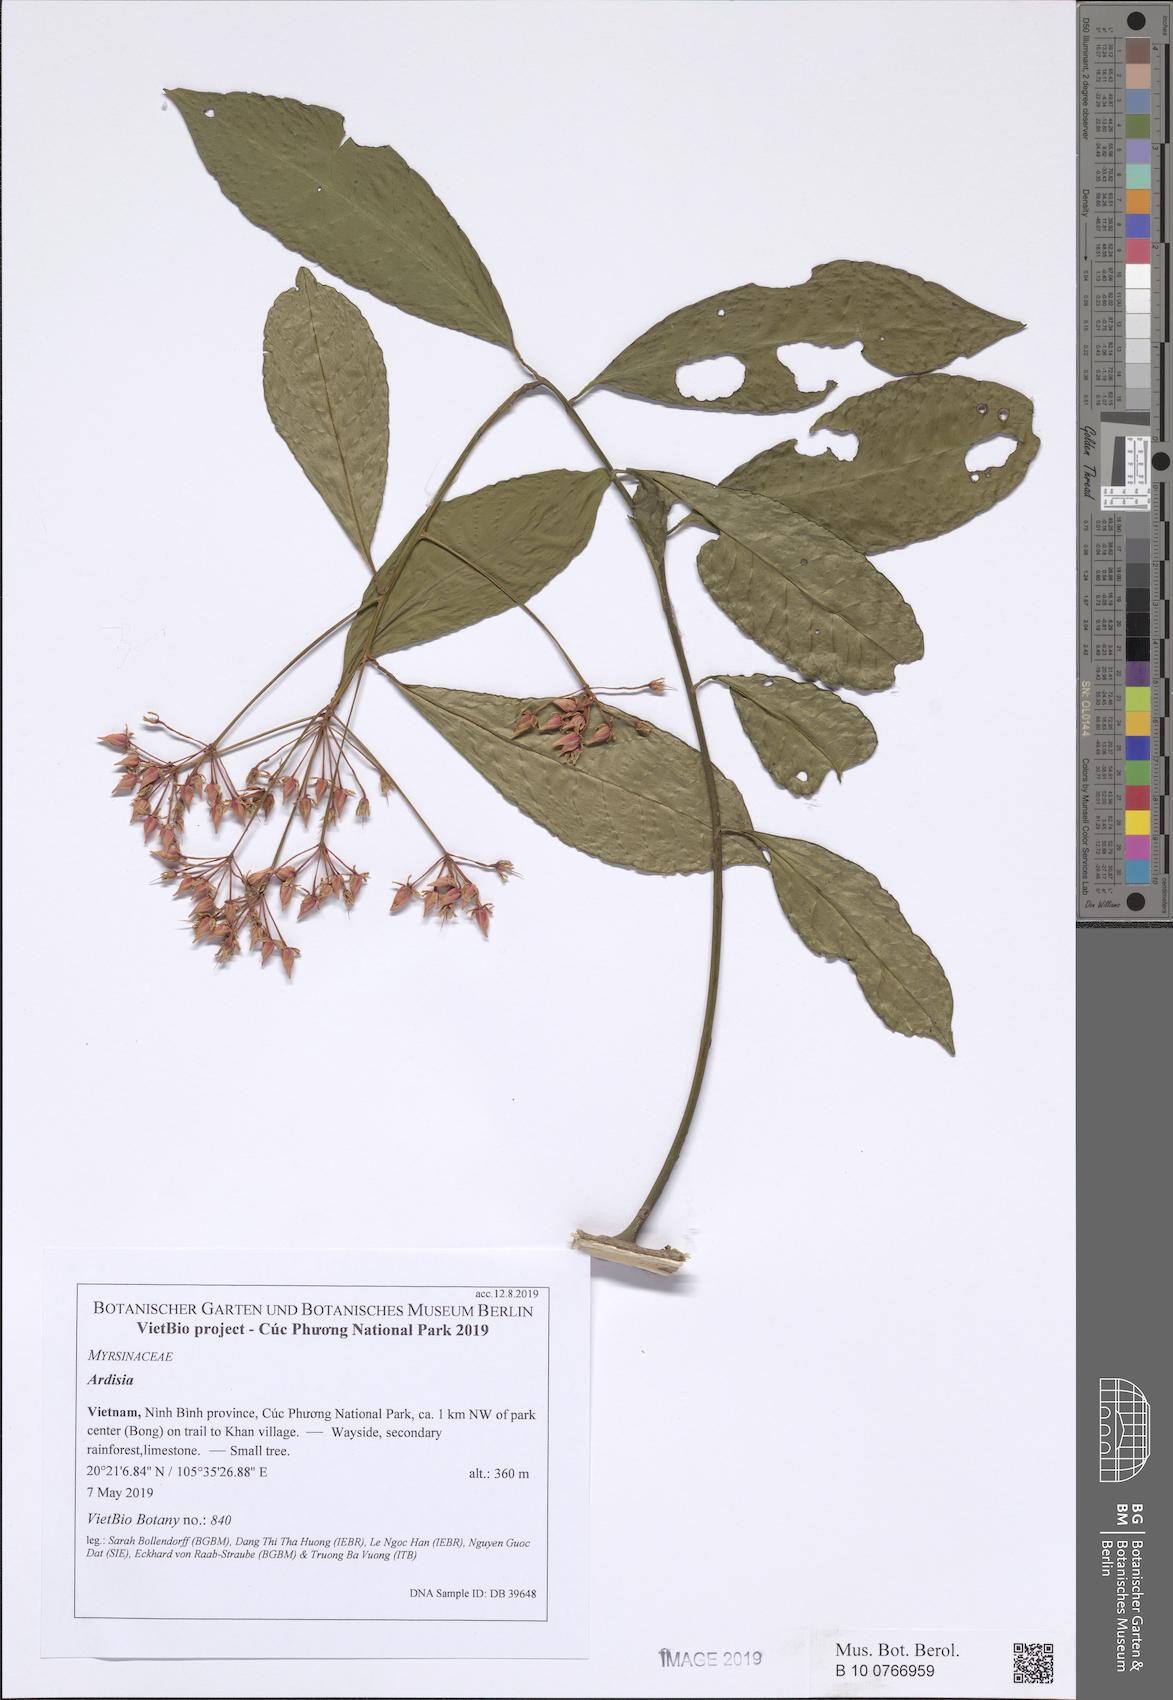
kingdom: Plantae
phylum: Tracheophyta
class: Magnoliopsida
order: Vitales
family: Vitaceae
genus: Tetrastigma
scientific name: Tetrastigma
